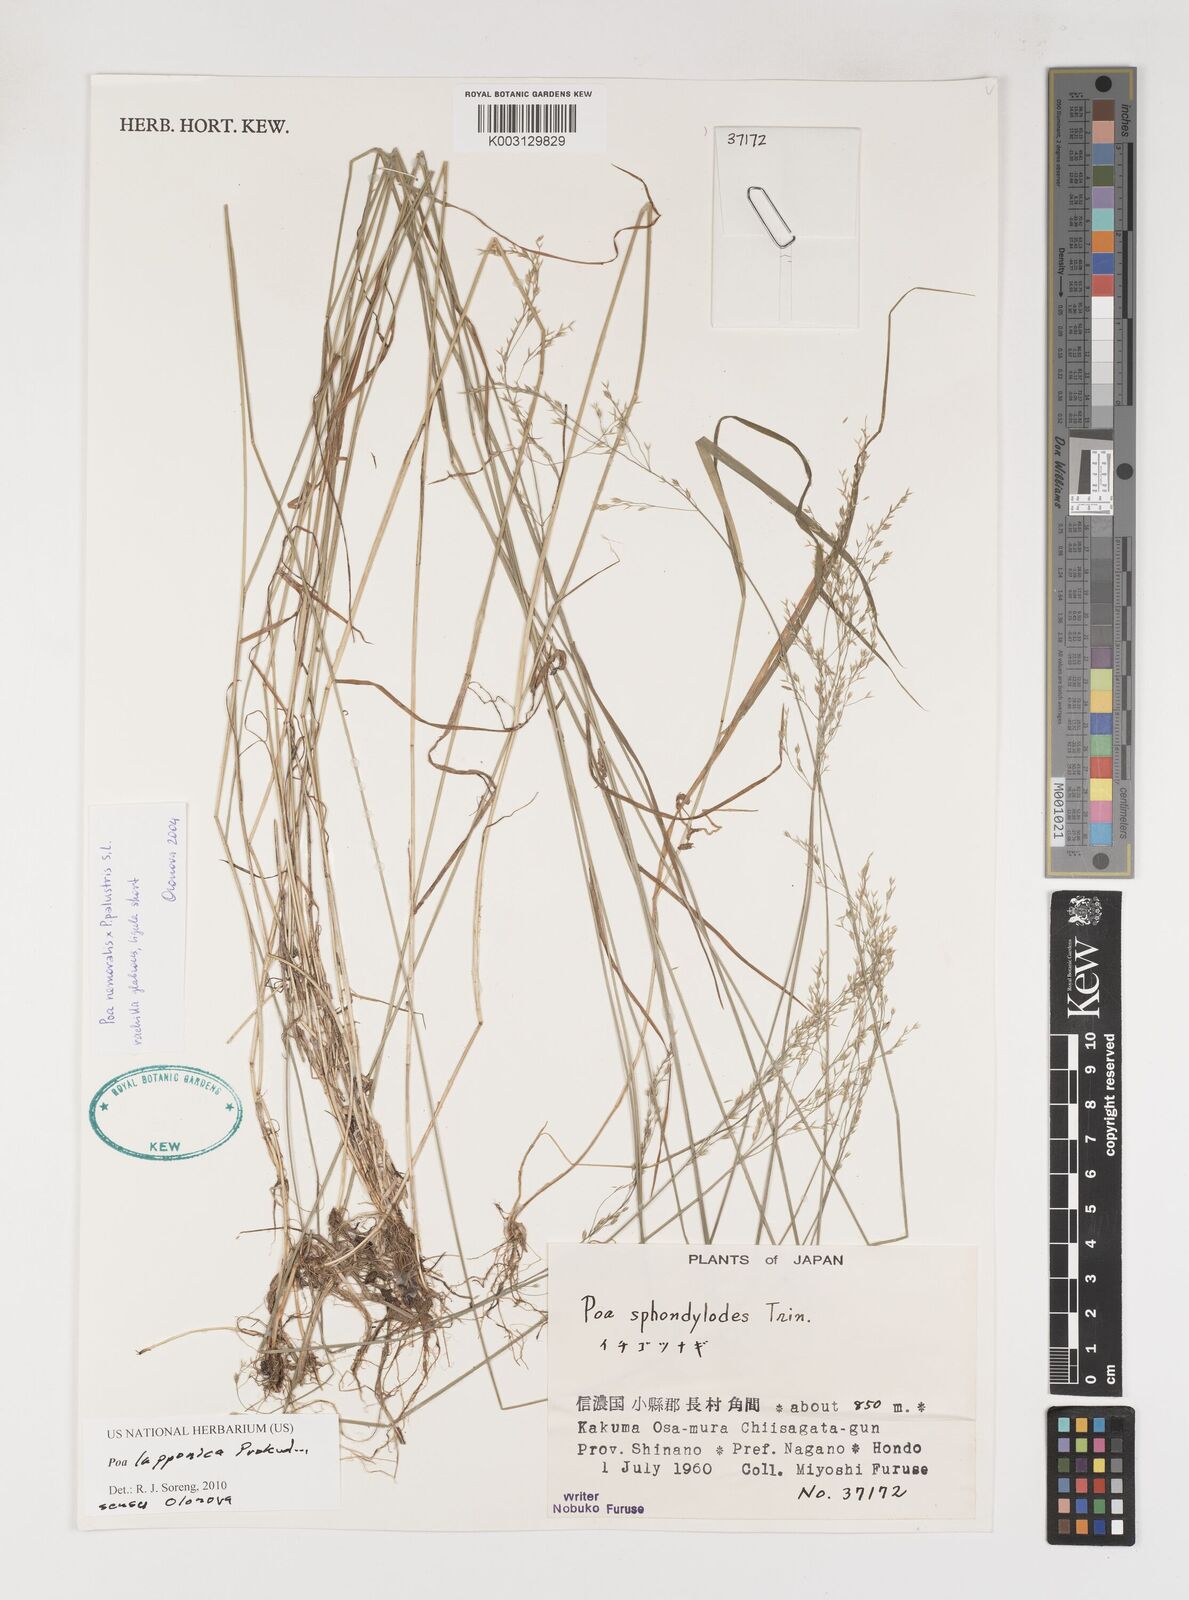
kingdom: Plantae
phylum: Tracheophyta
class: Liliopsida
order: Poales
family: Poaceae
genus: Poa
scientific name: Poa nemoralis
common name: Wood bluegrass
